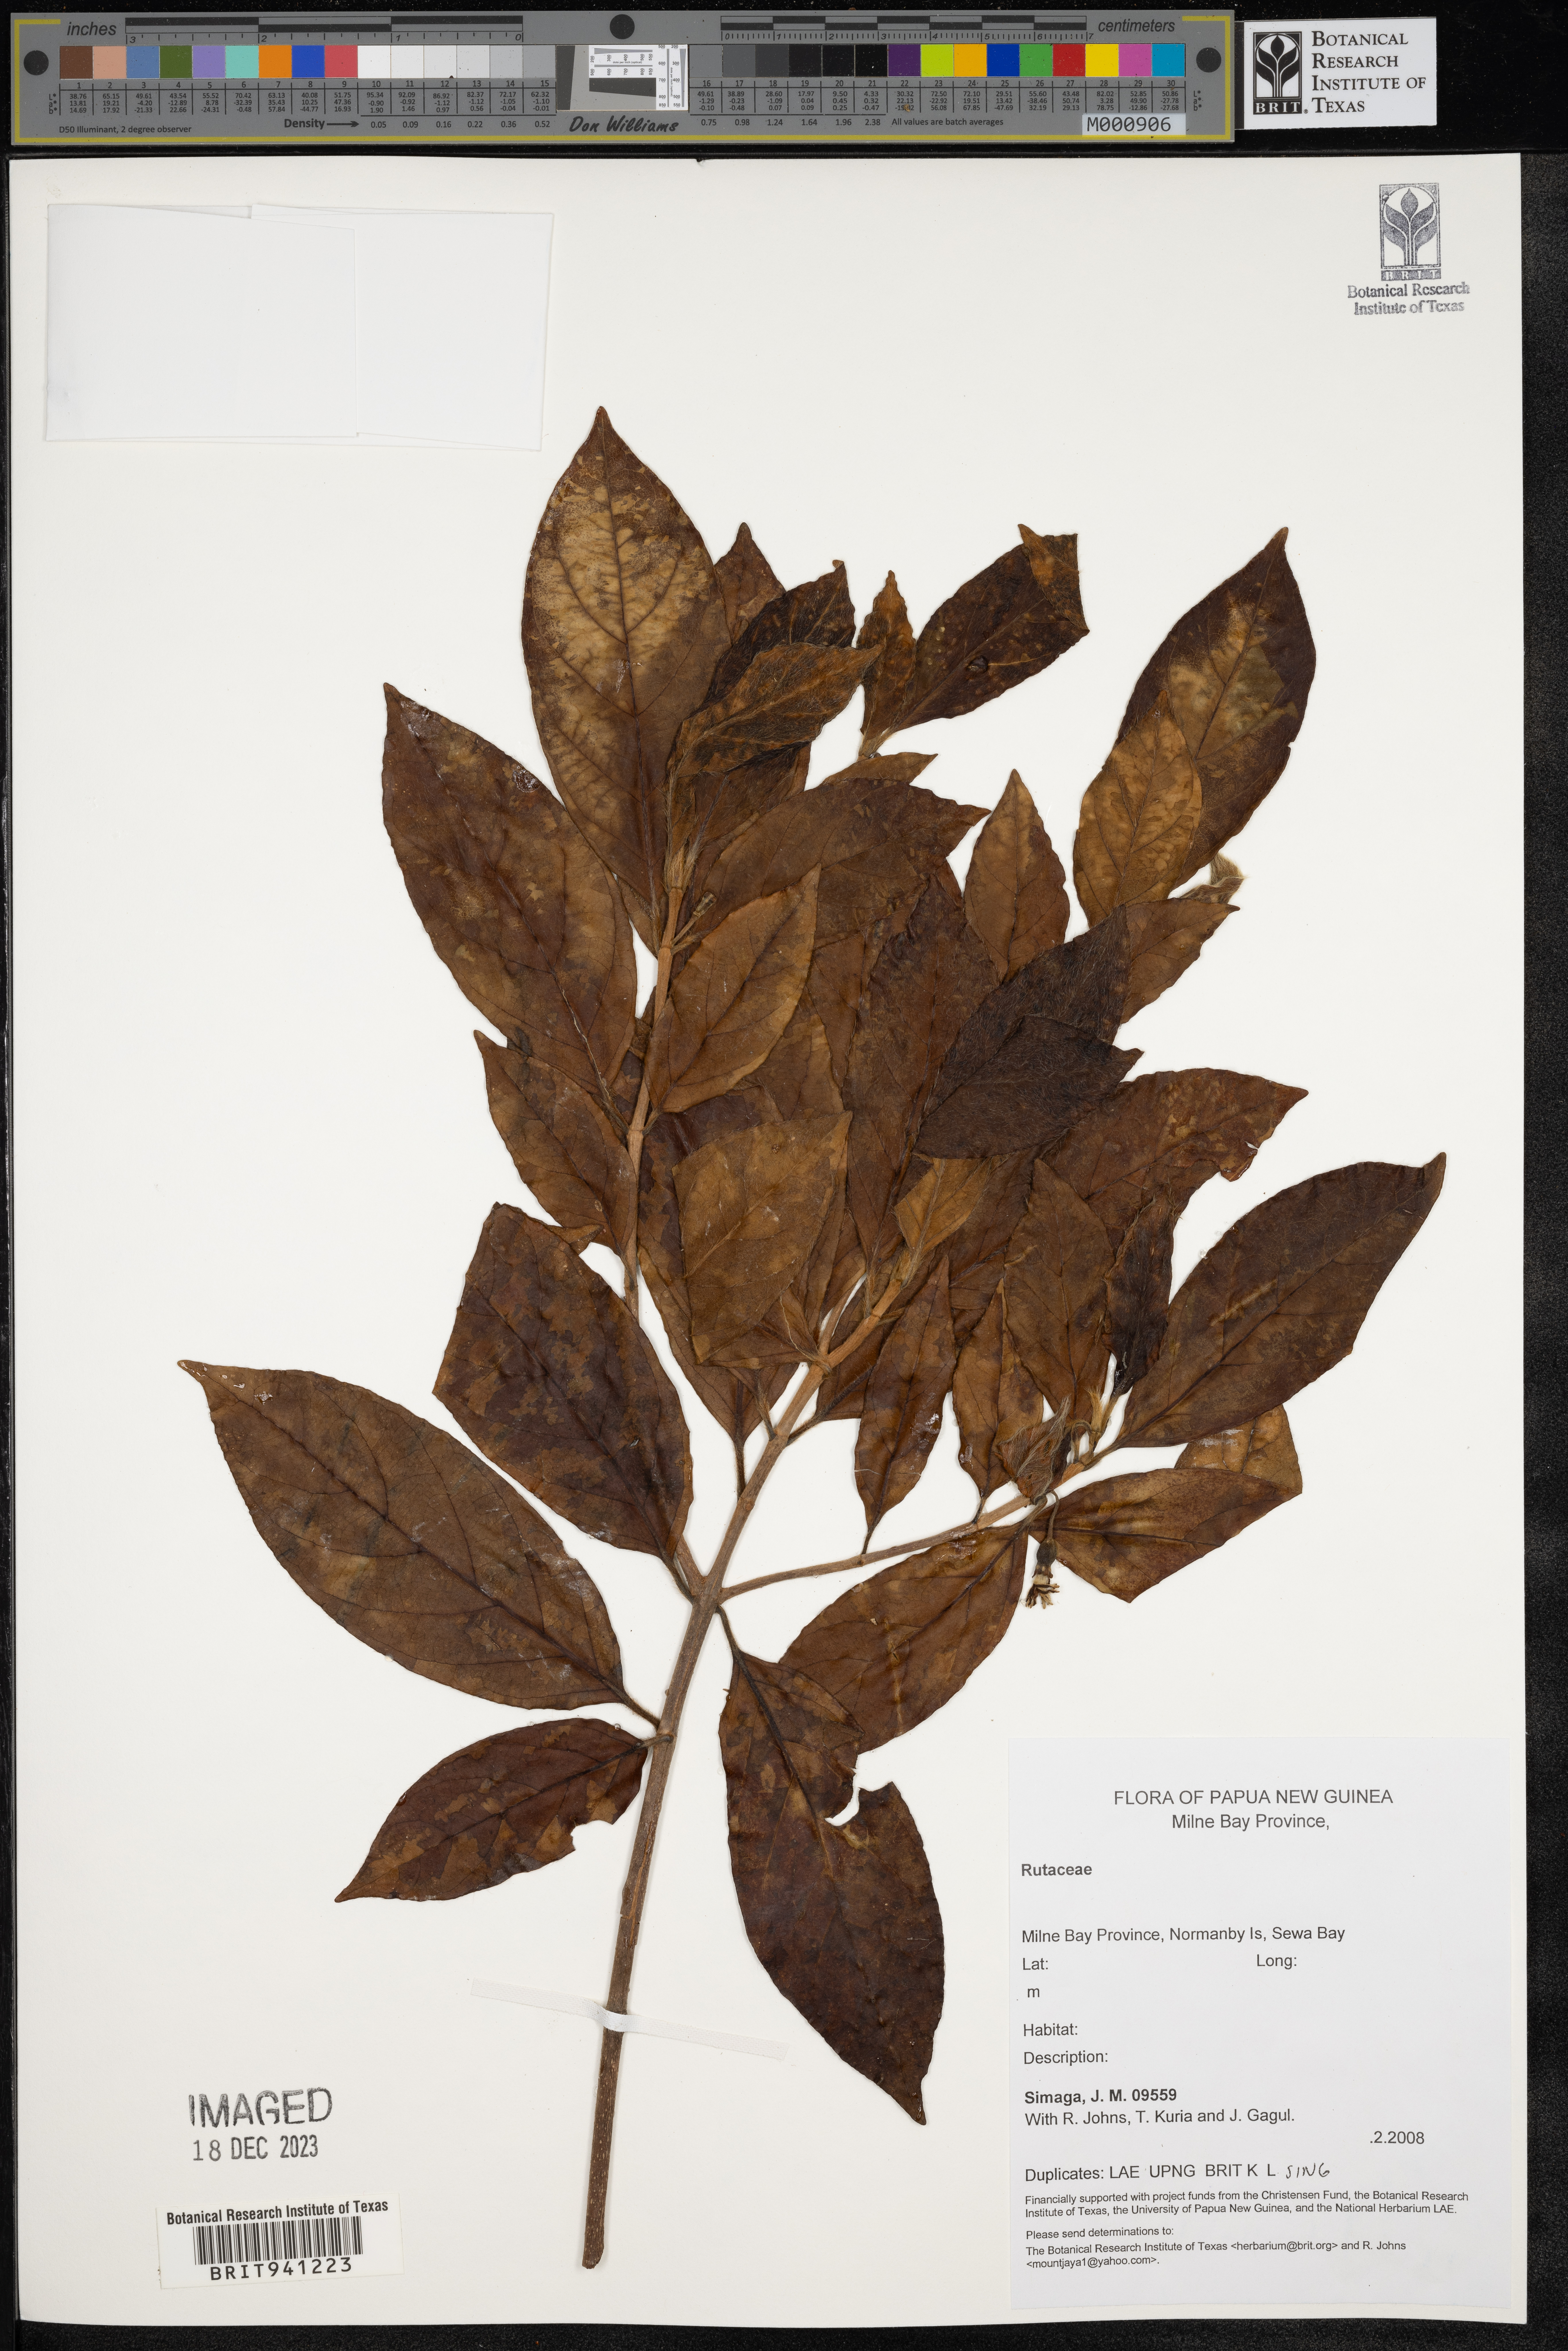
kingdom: Plantae
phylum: Tracheophyta
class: Magnoliopsida
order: Sapindales
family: Rutaceae
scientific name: Rutaceae
